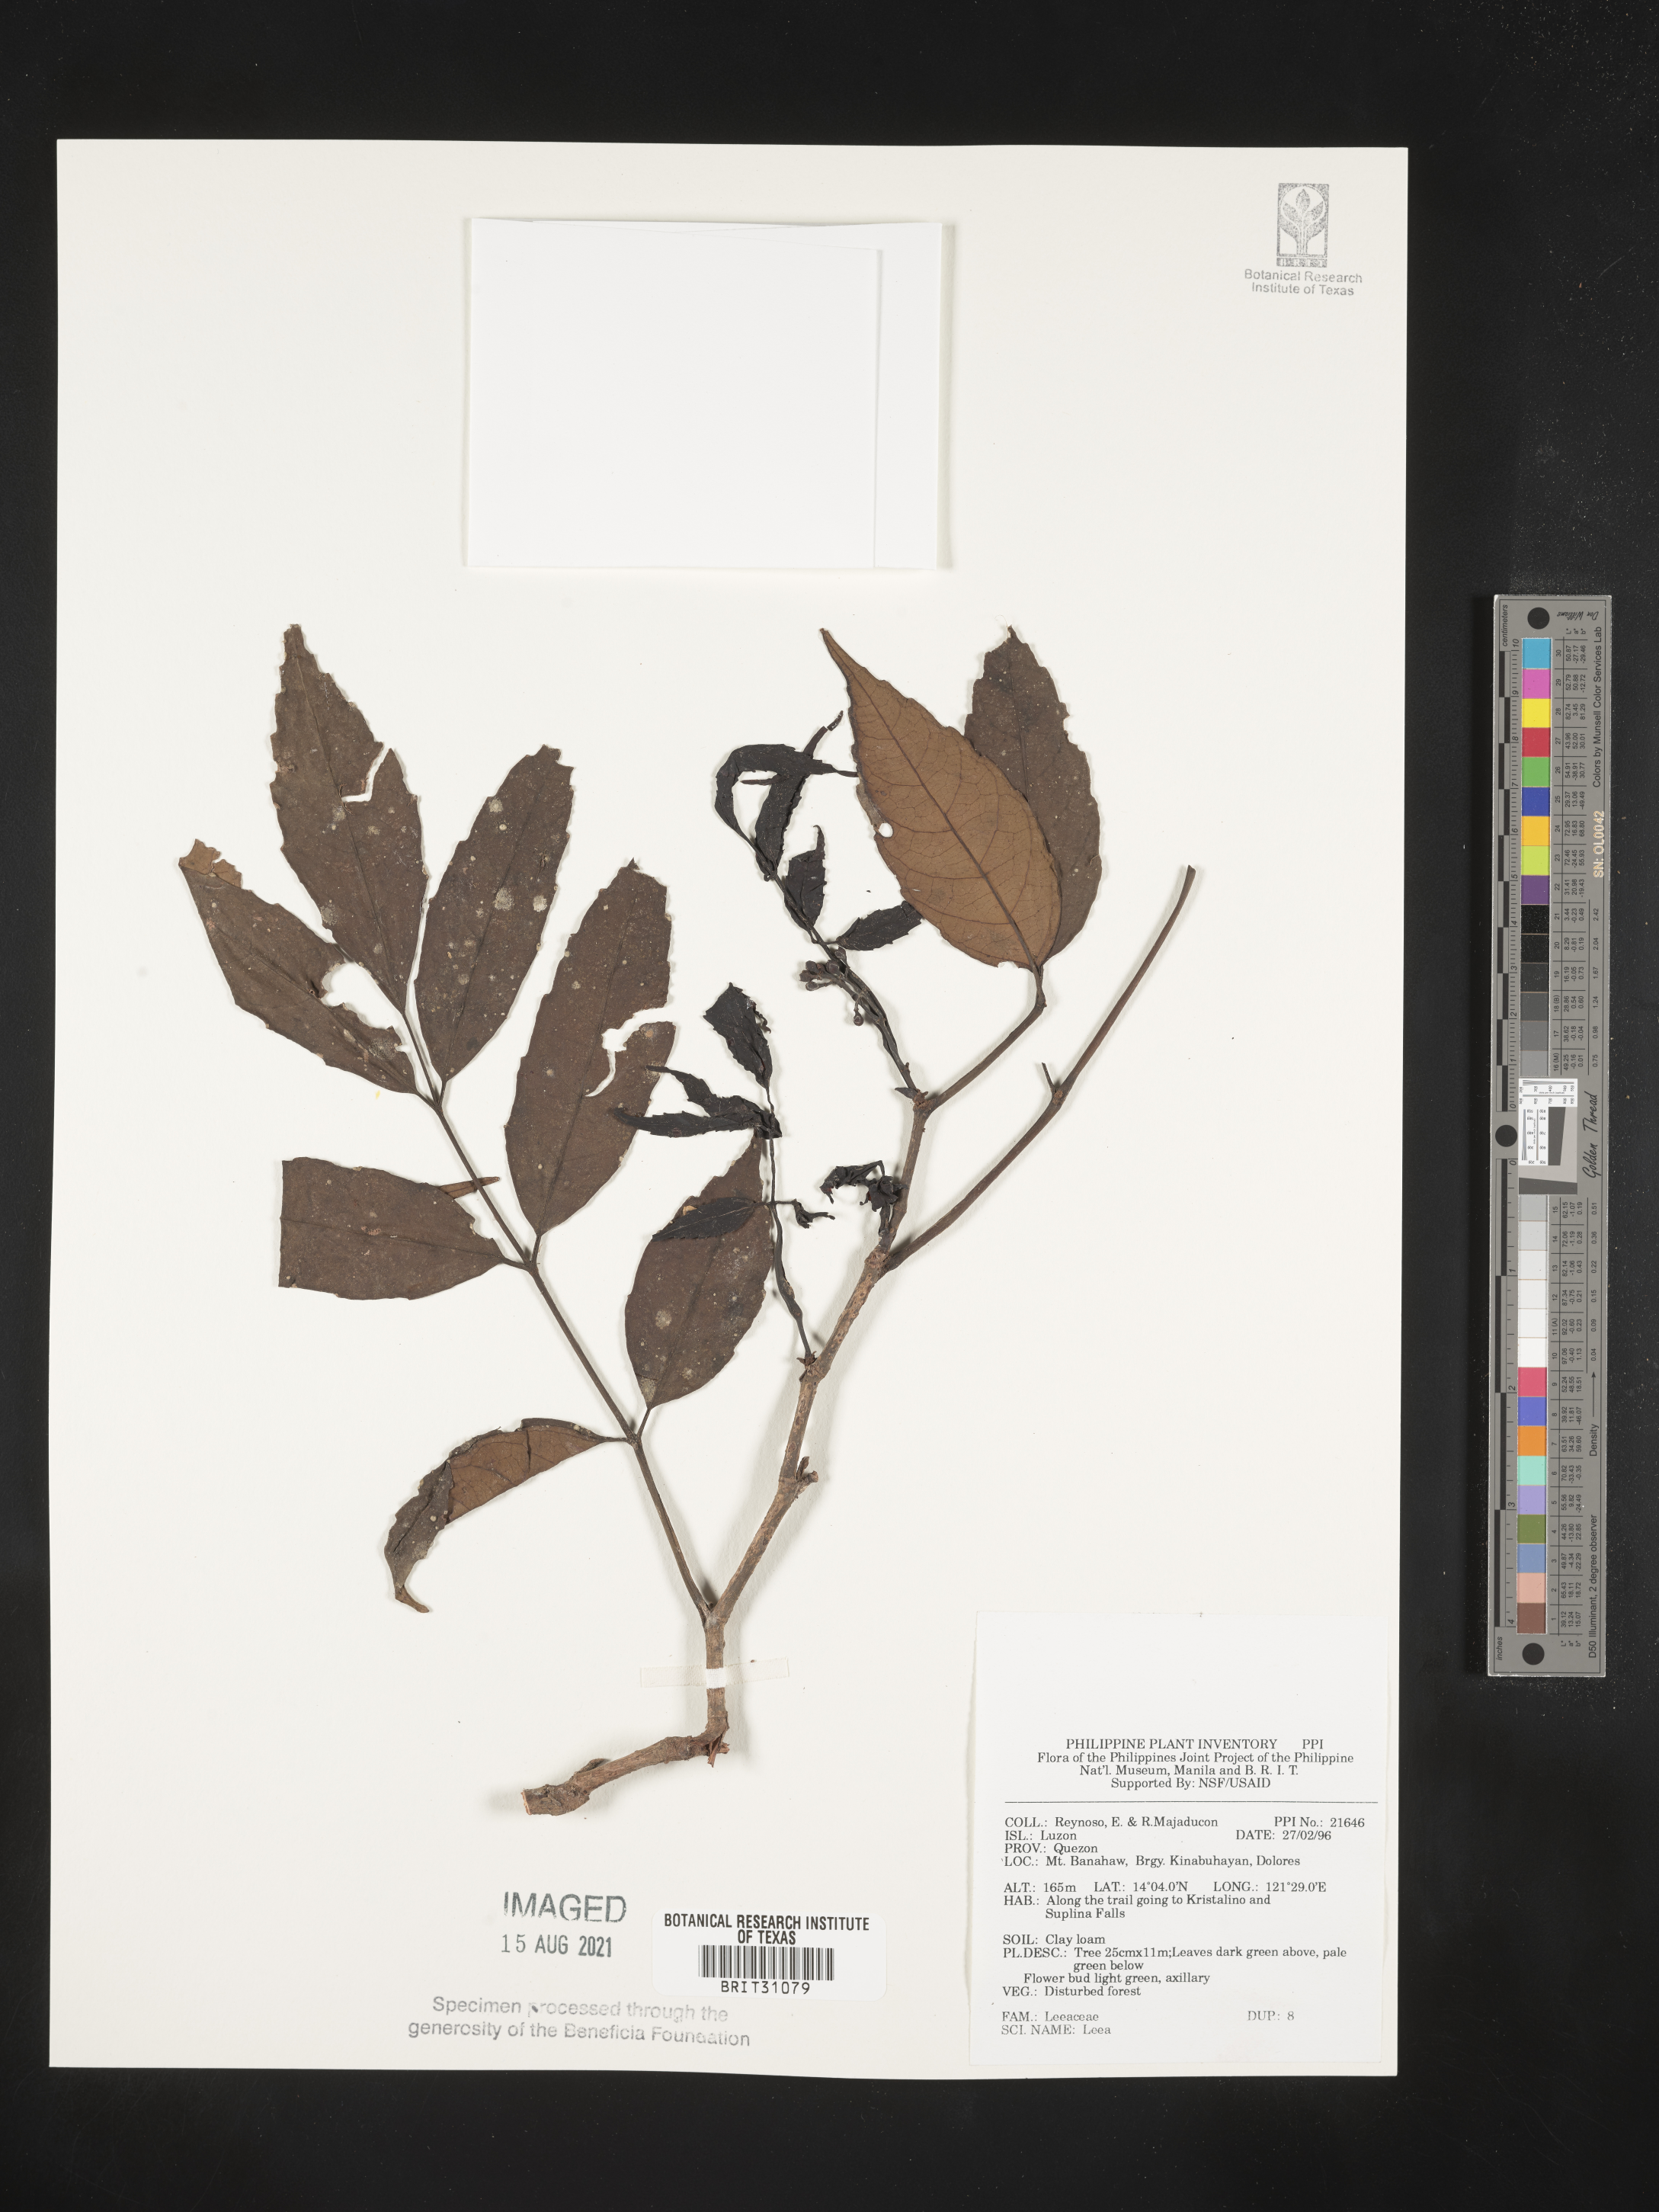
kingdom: Plantae
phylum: Tracheophyta
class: Magnoliopsida
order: Vitales
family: Vitaceae
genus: Leea
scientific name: Leea
